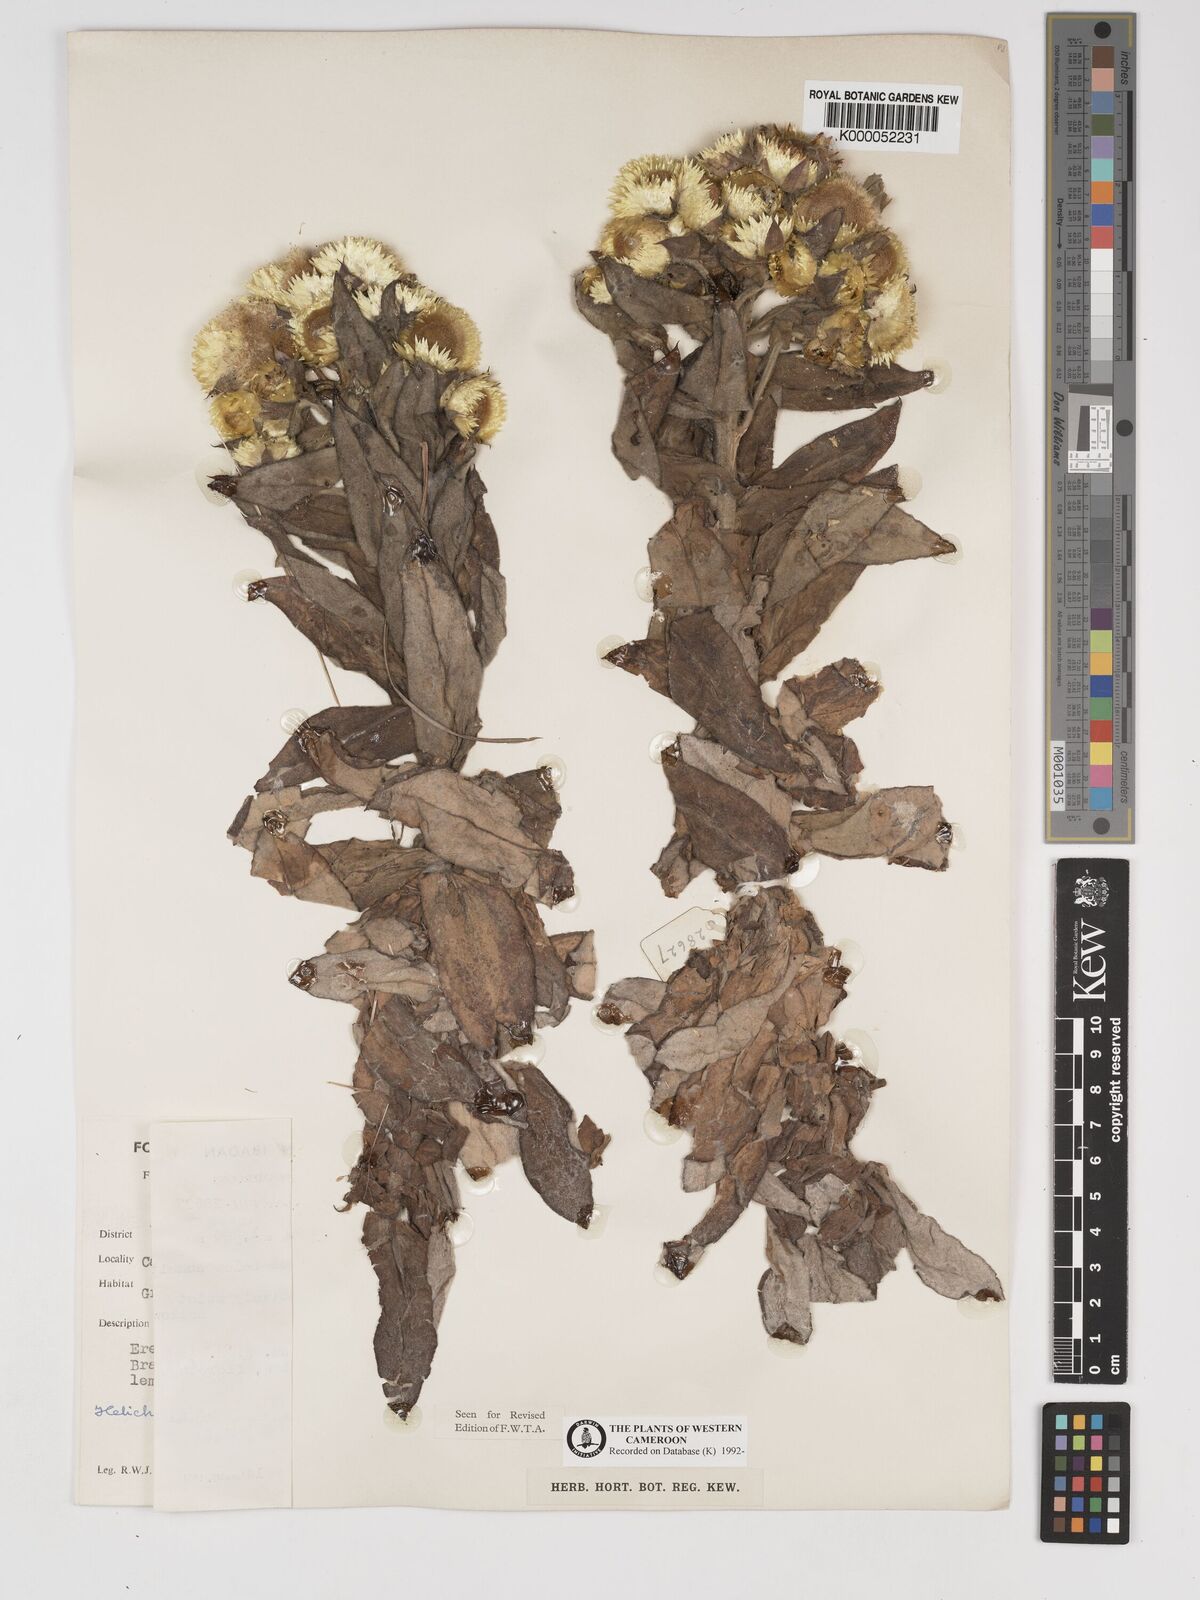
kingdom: Plantae
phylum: Tracheophyta
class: Magnoliopsida
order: Asterales
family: Asteraceae
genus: Helichrysum
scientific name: Helichrysum cameroonense
